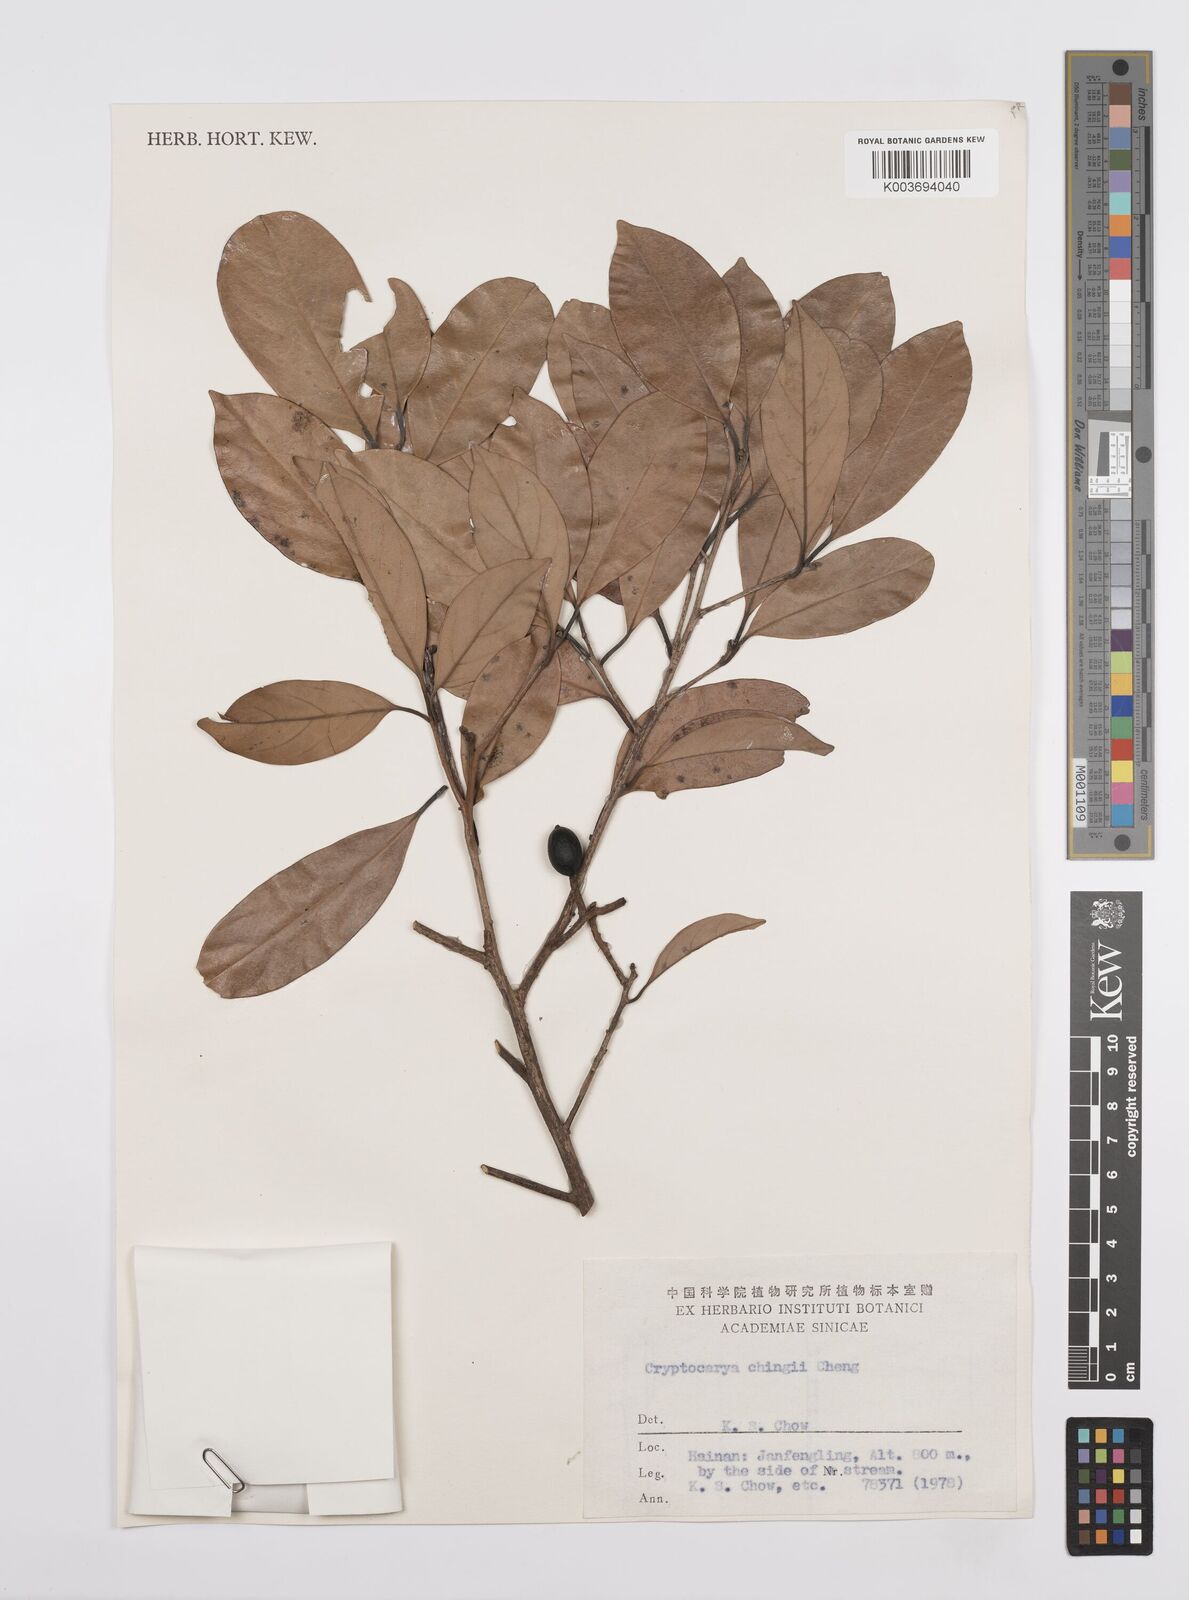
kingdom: Plantae
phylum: Tracheophyta
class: Magnoliopsida
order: Laurales
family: Lauraceae
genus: Cryptocarya
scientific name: Cryptocarya chingii
